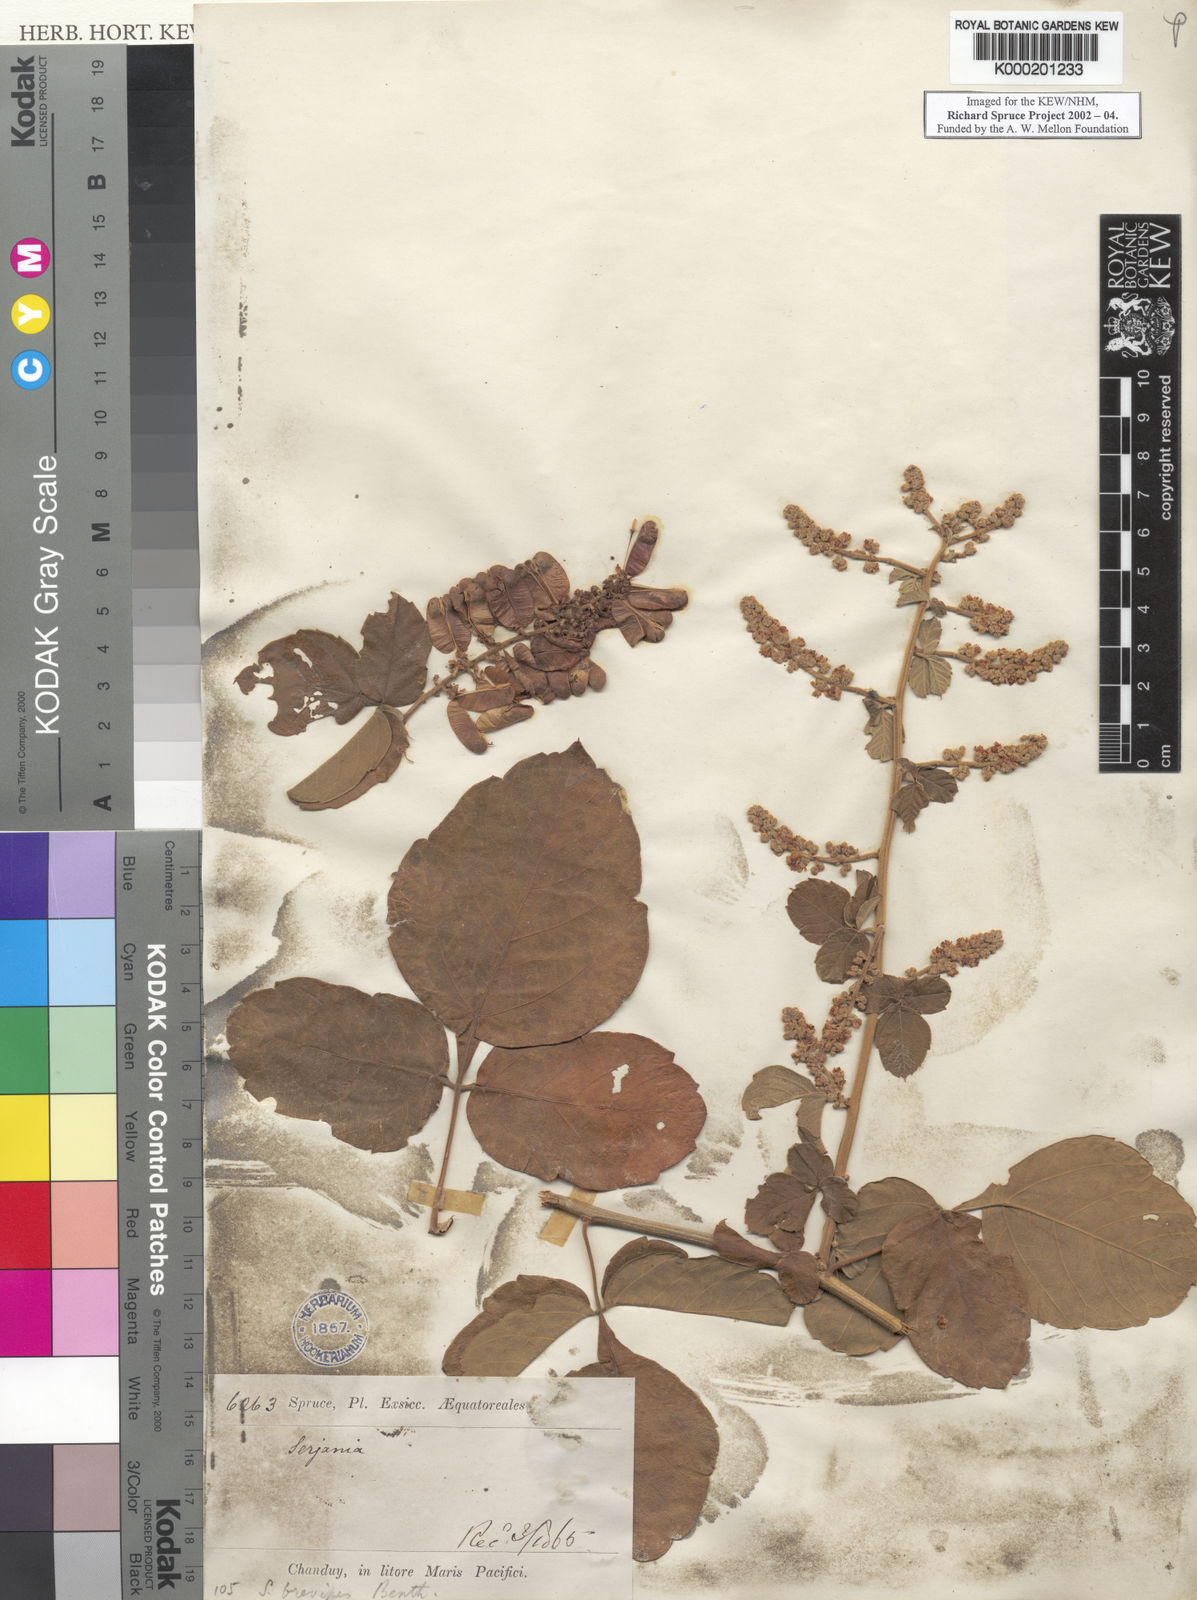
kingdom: Plantae
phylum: Tracheophyta
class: Magnoliopsida
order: Sapindales
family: Sapindaceae
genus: Serjania
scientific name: Serjania brevipes
